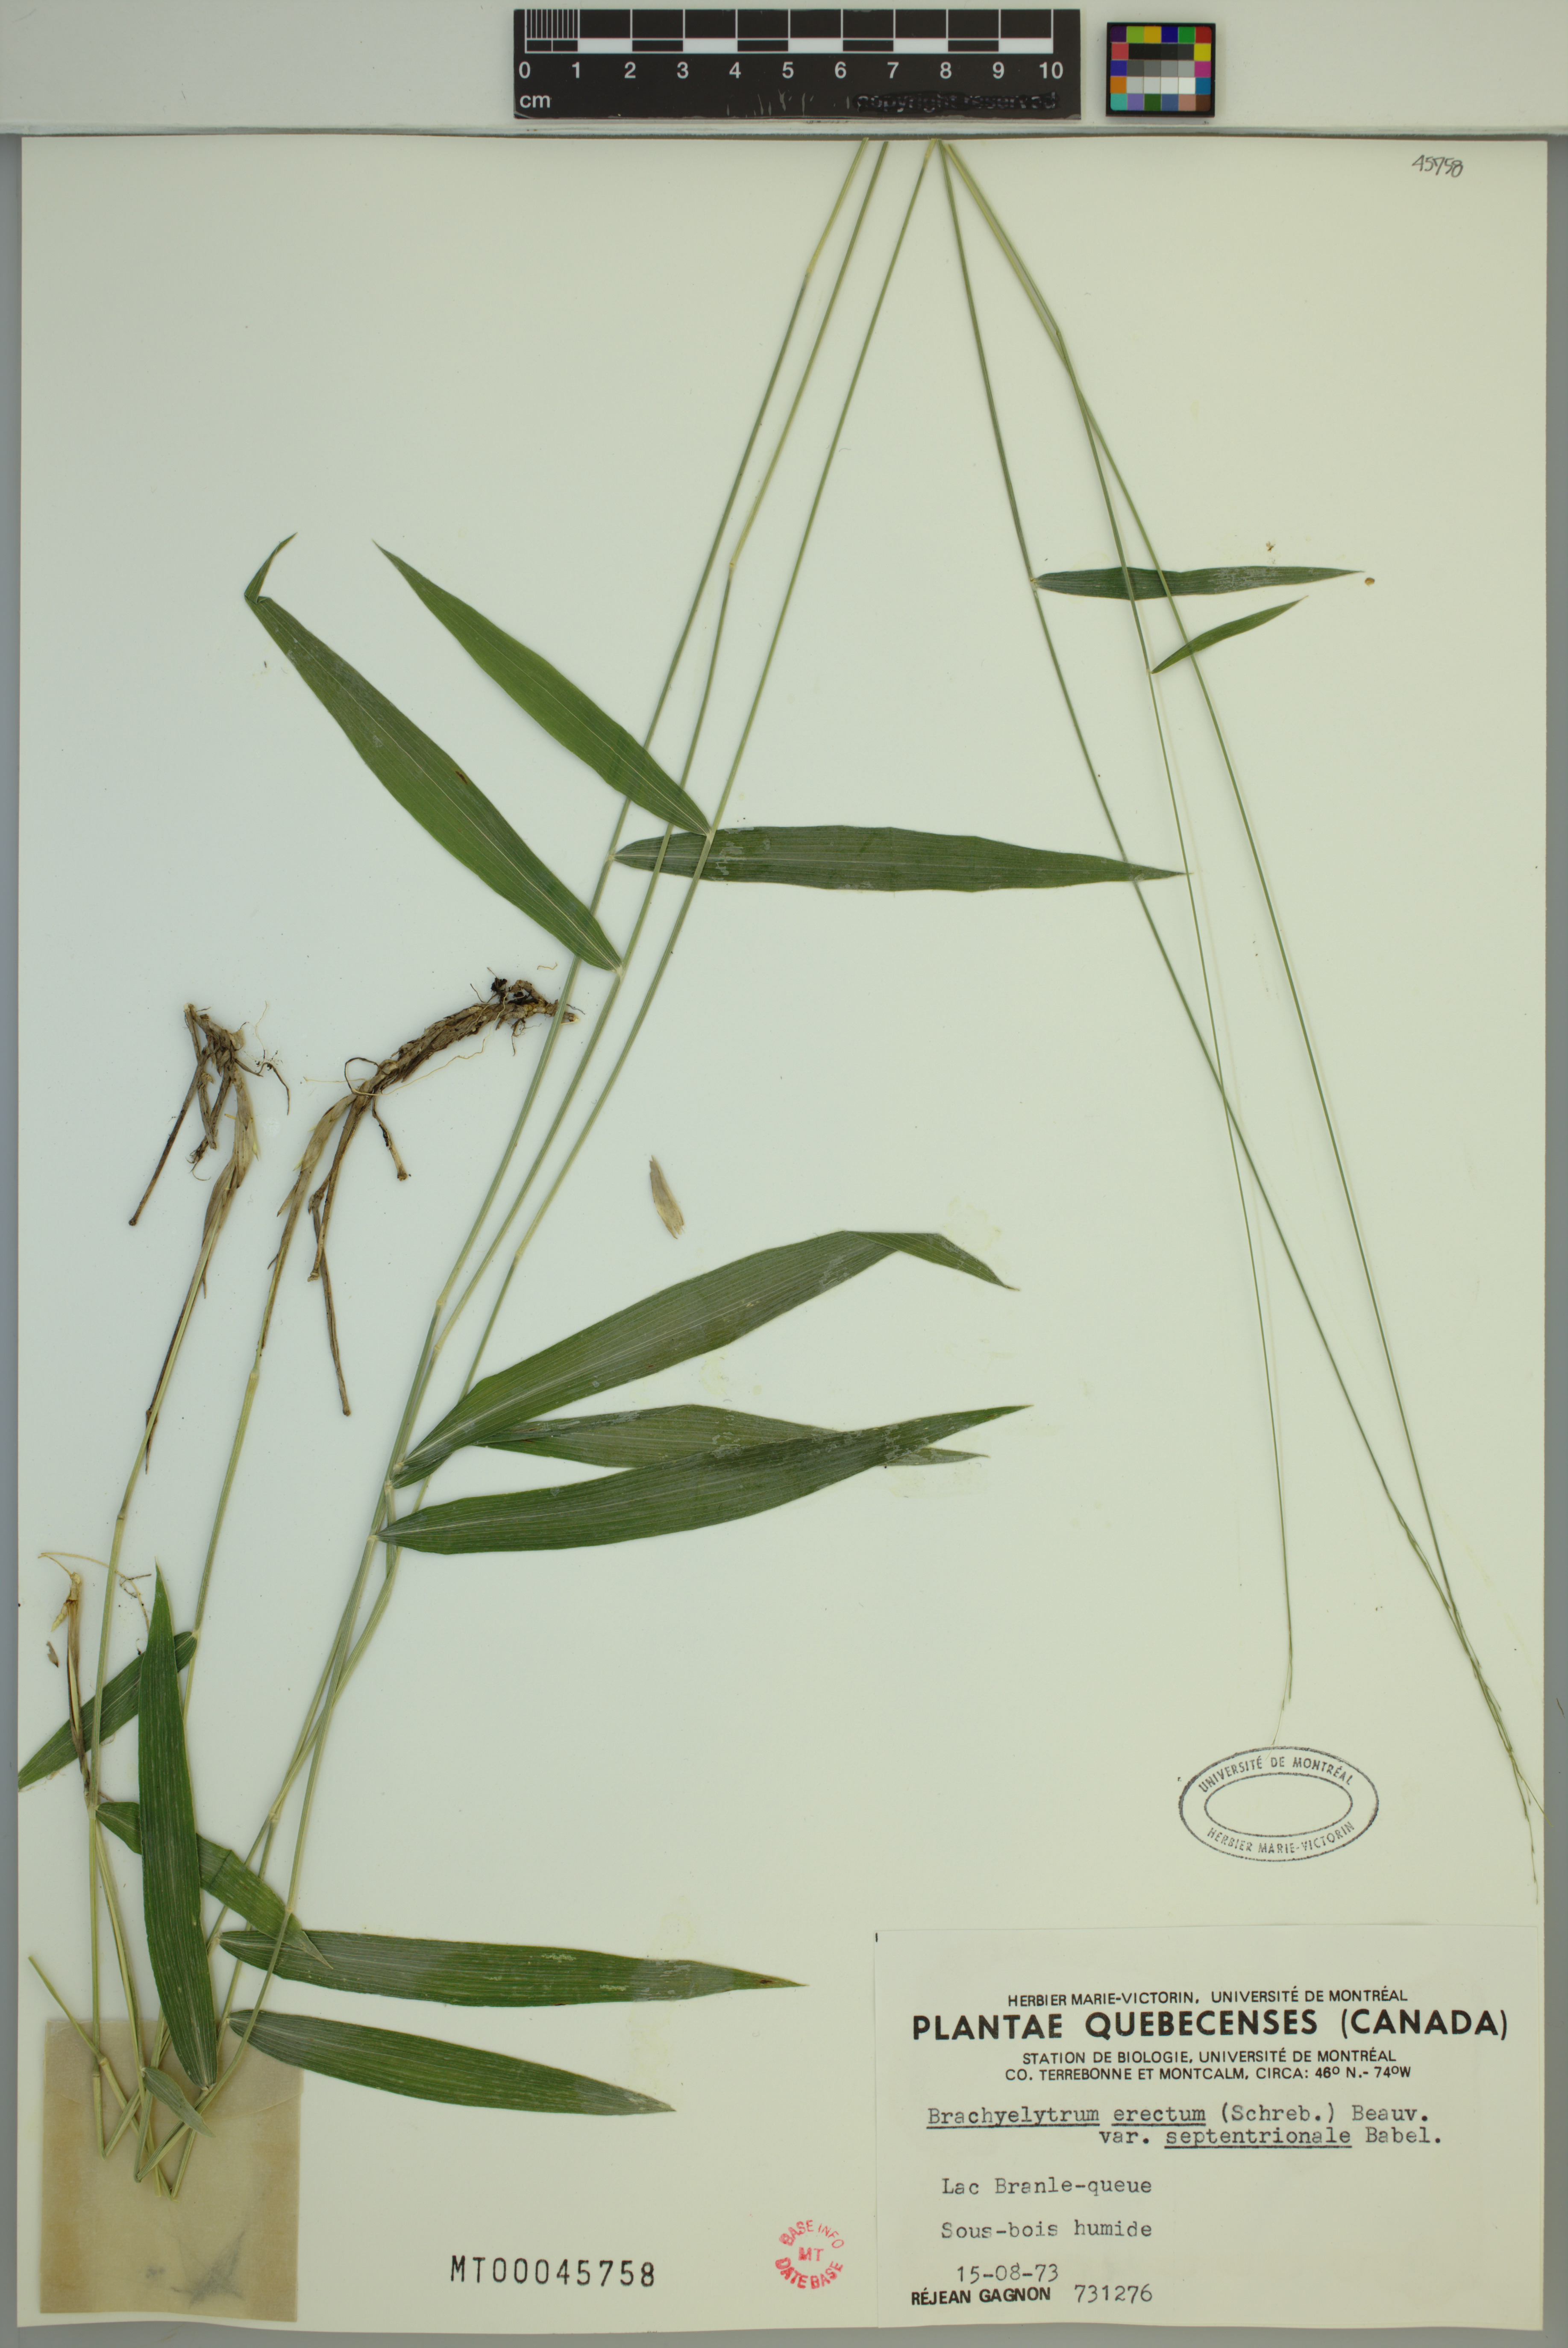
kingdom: Plantae
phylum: Tracheophyta
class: Liliopsida
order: Poales
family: Poaceae
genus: Brachyelytrum
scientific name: Brachyelytrum aristosum
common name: Northern shorthusk
